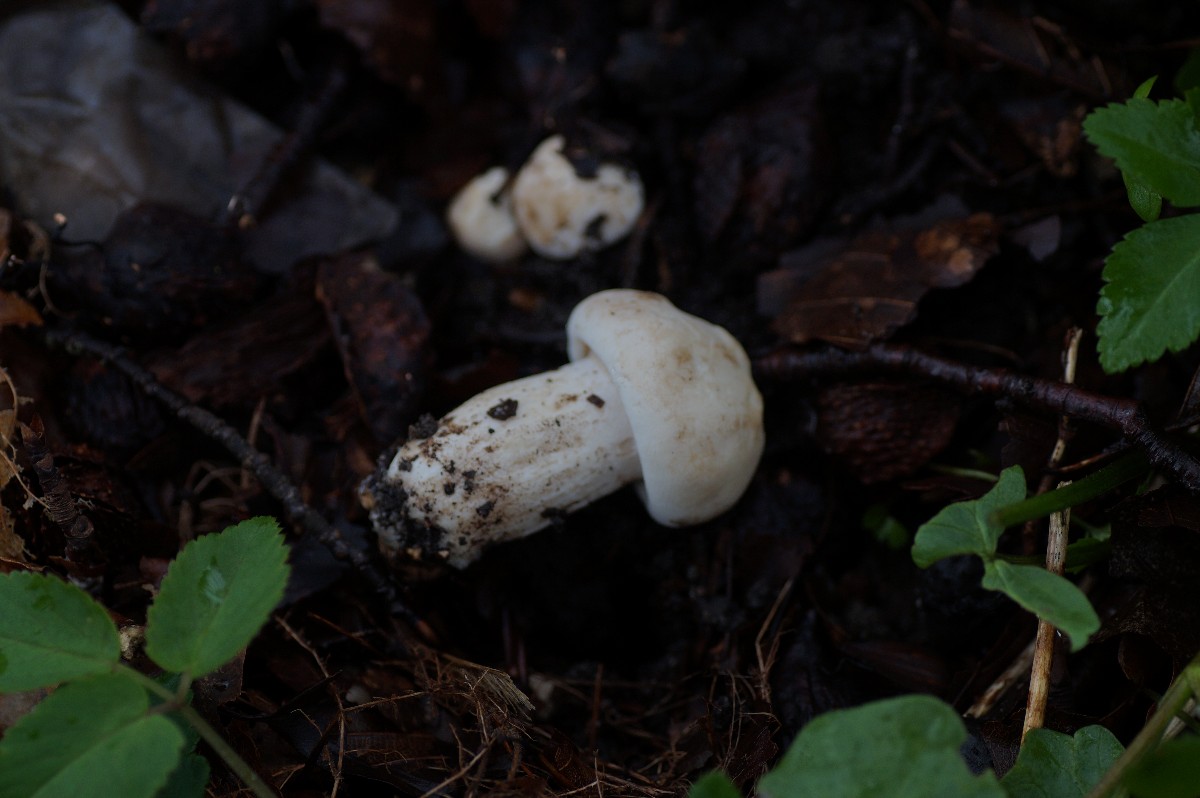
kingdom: Fungi
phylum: Basidiomycota
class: Agaricomycetes
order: Agaricales
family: Lyophyllaceae
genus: Calocybe
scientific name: Calocybe gambosa
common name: vårmusseron
